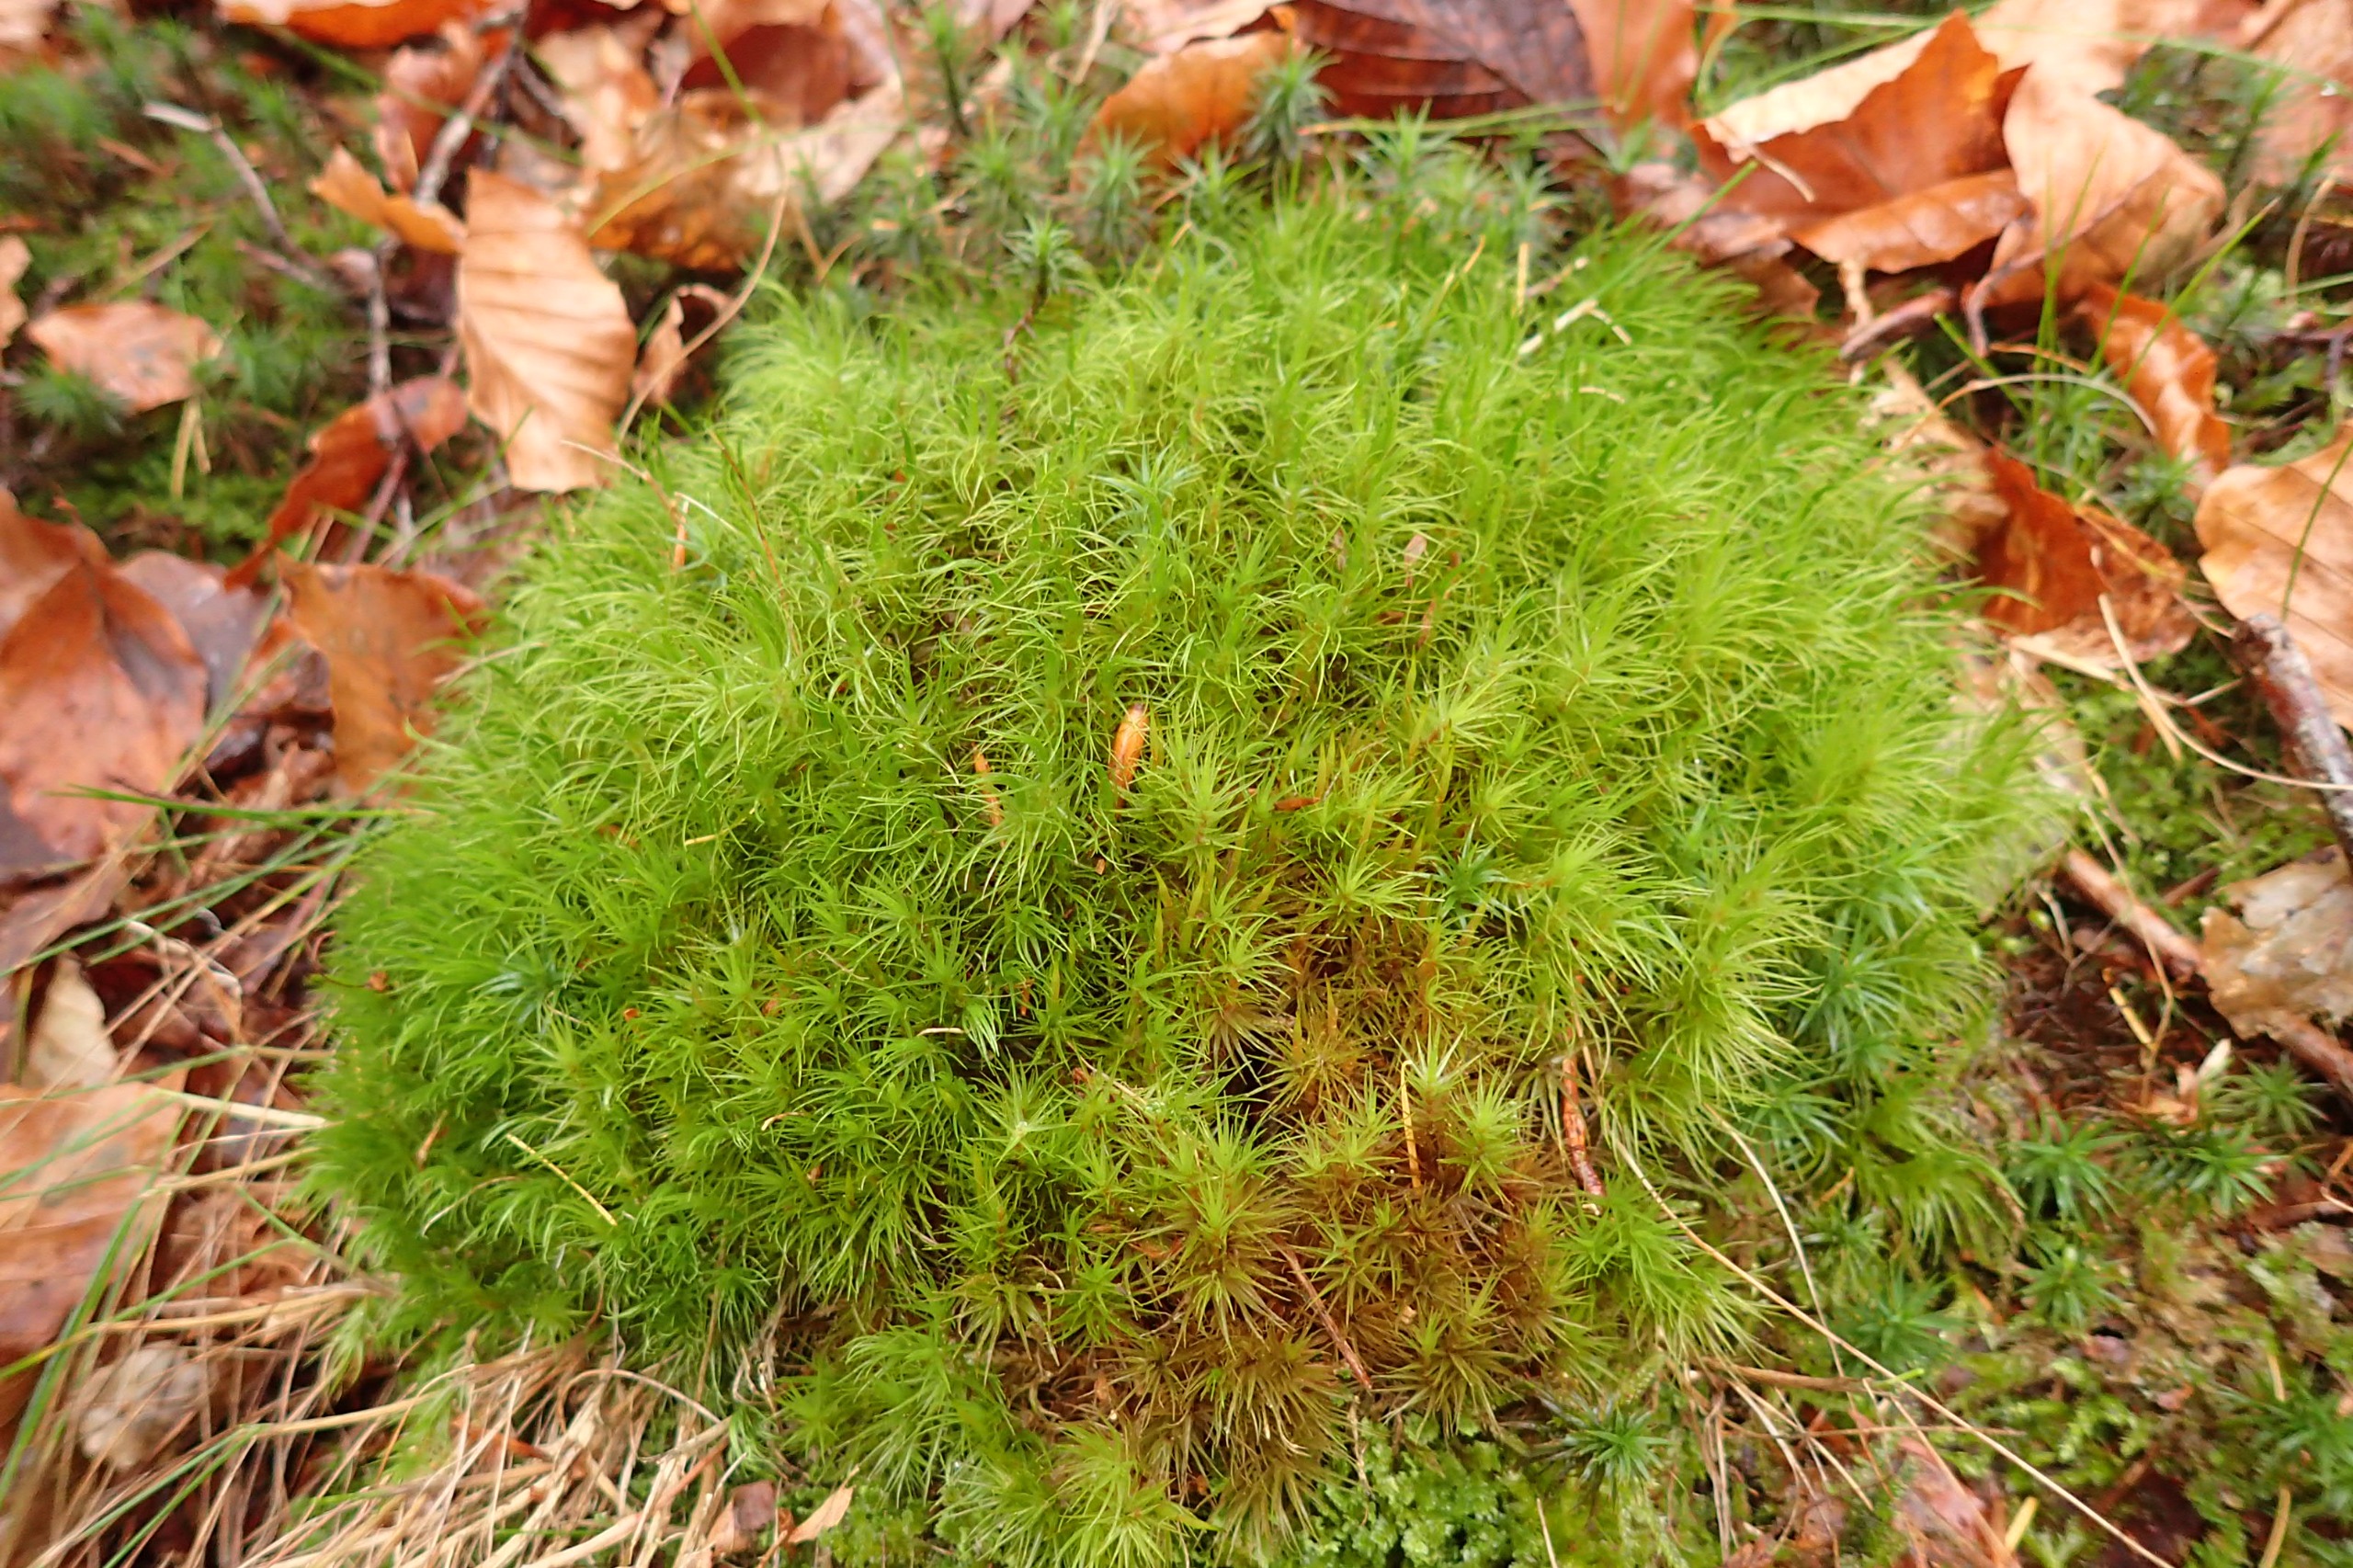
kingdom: Plantae
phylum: Bryophyta
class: Bryopsida
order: Dicranales
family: Dicranaceae
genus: Dicranum
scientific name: Dicranum majus
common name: Stor kløvtand
